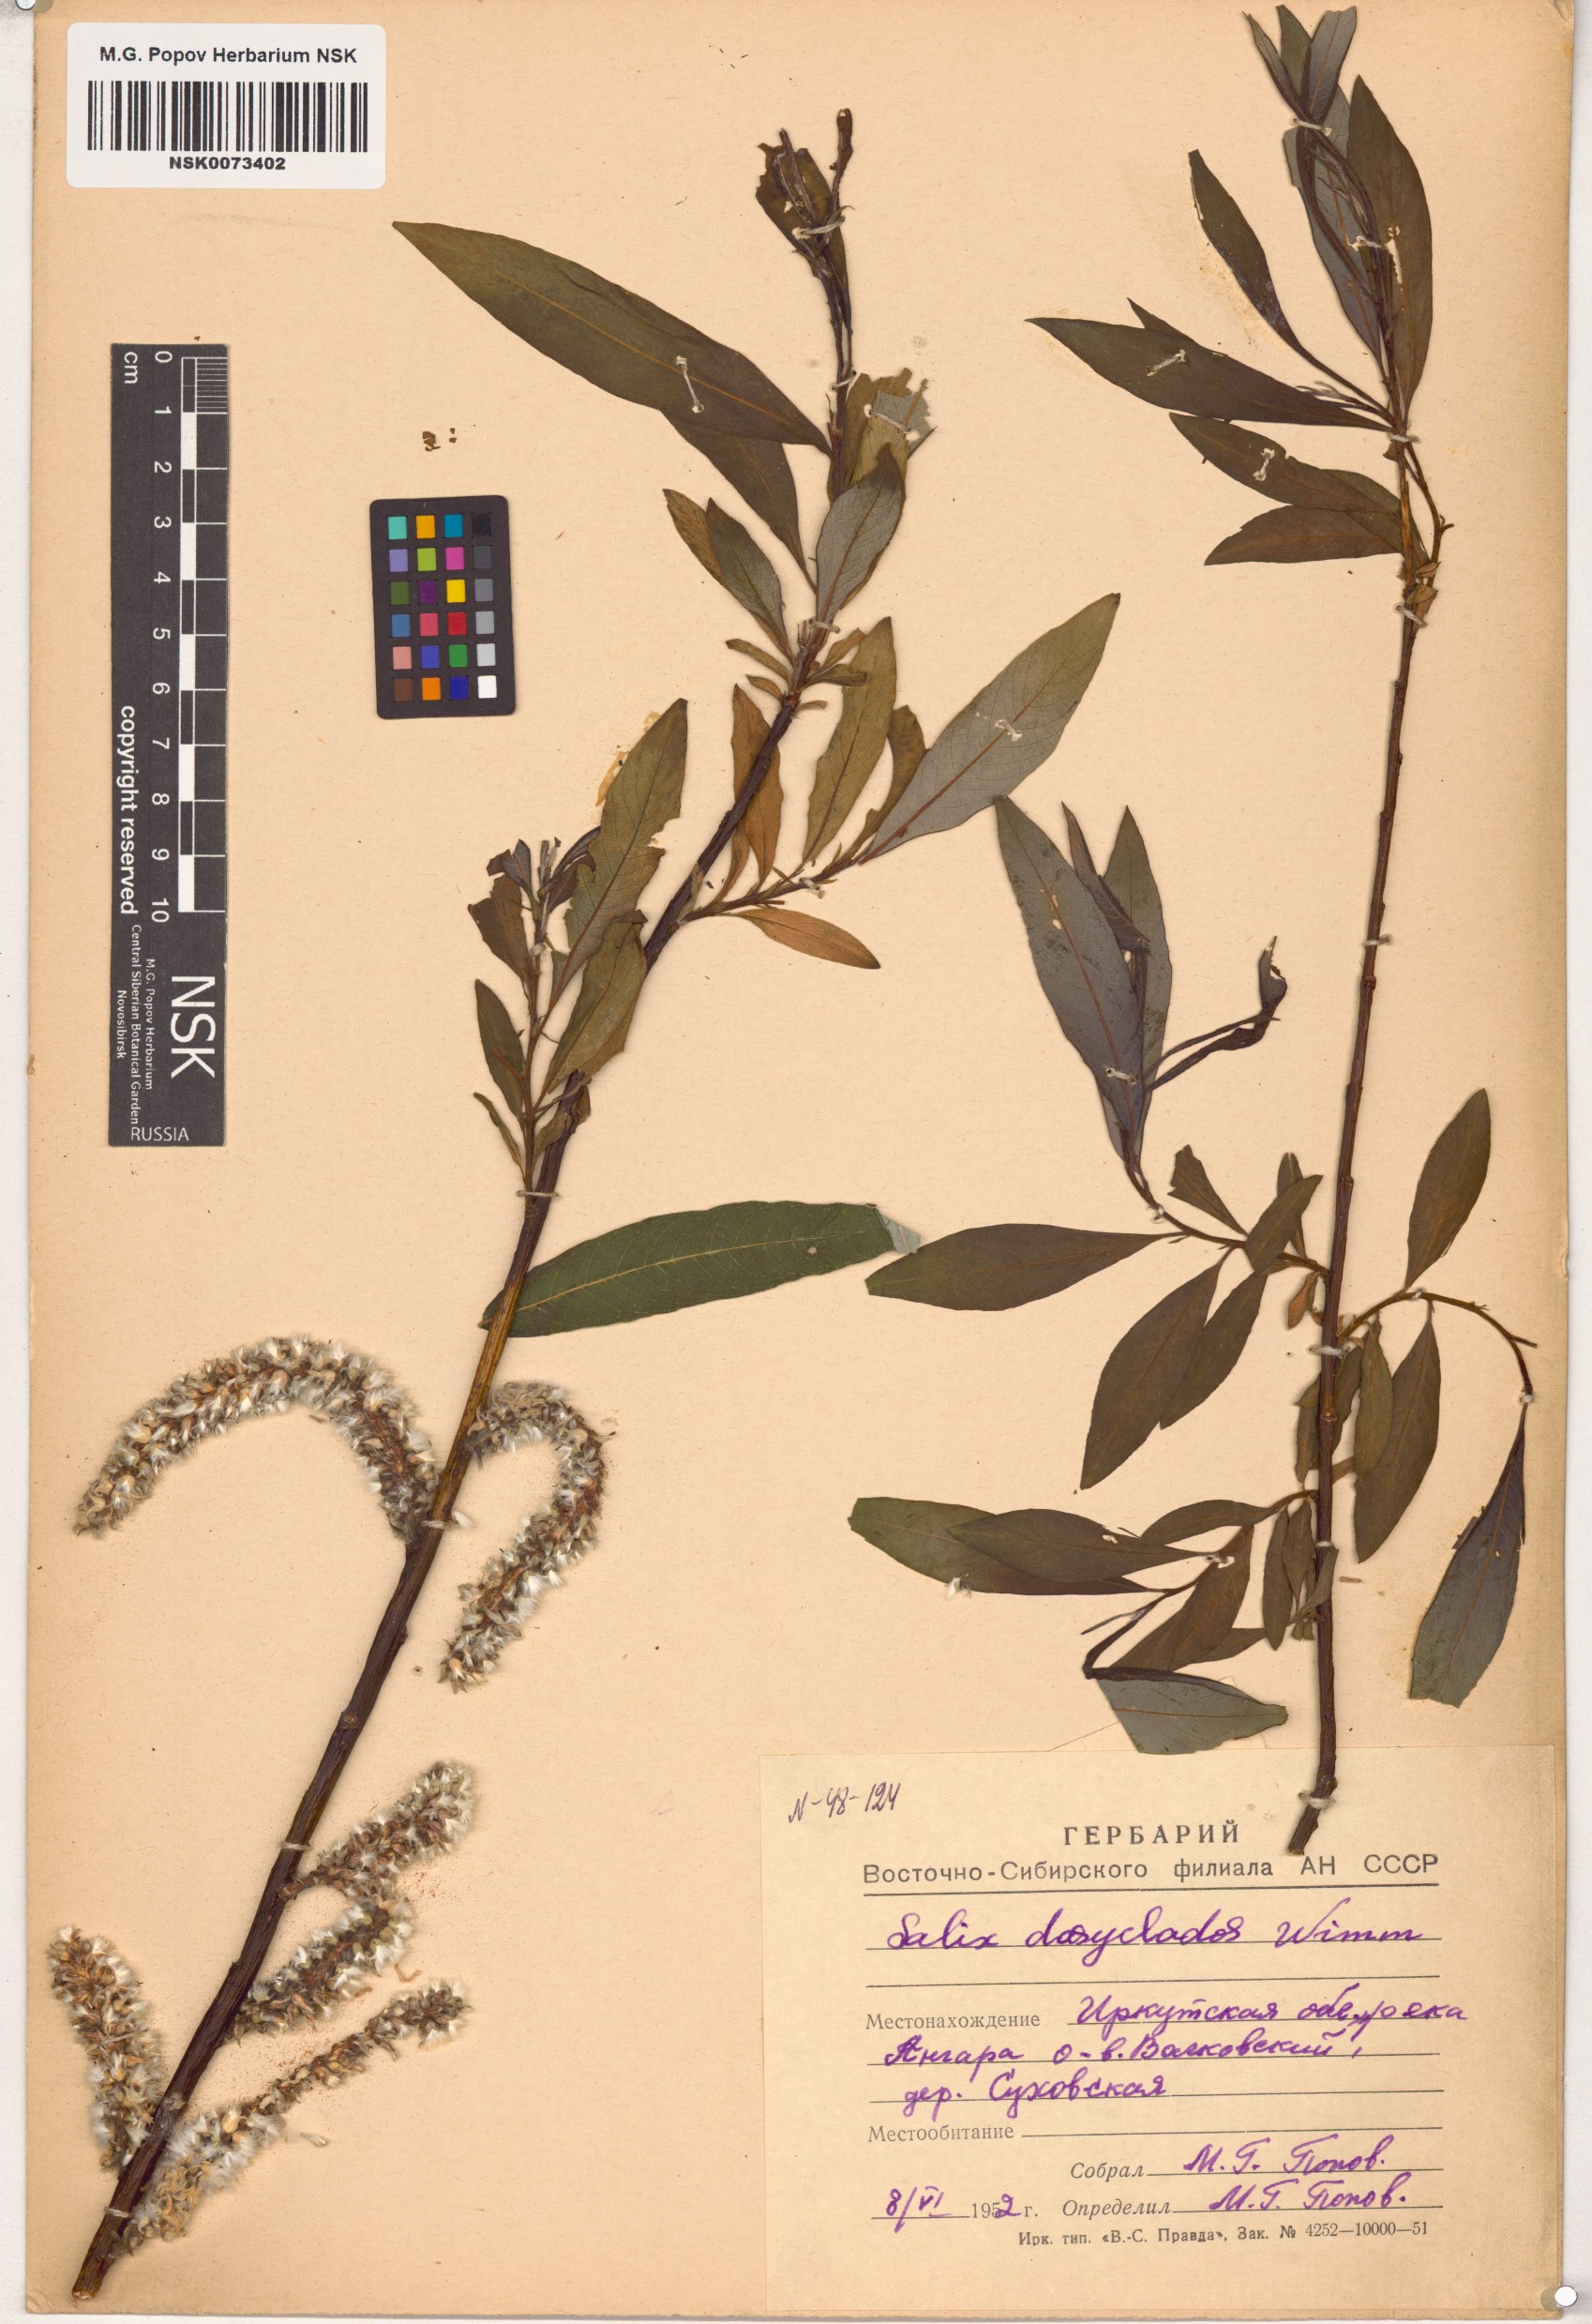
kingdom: Plantae
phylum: Tracheophyta
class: Magnoliopsida
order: Malpighiales
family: Salicaceae
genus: Salix
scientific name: Salix gmelinii
